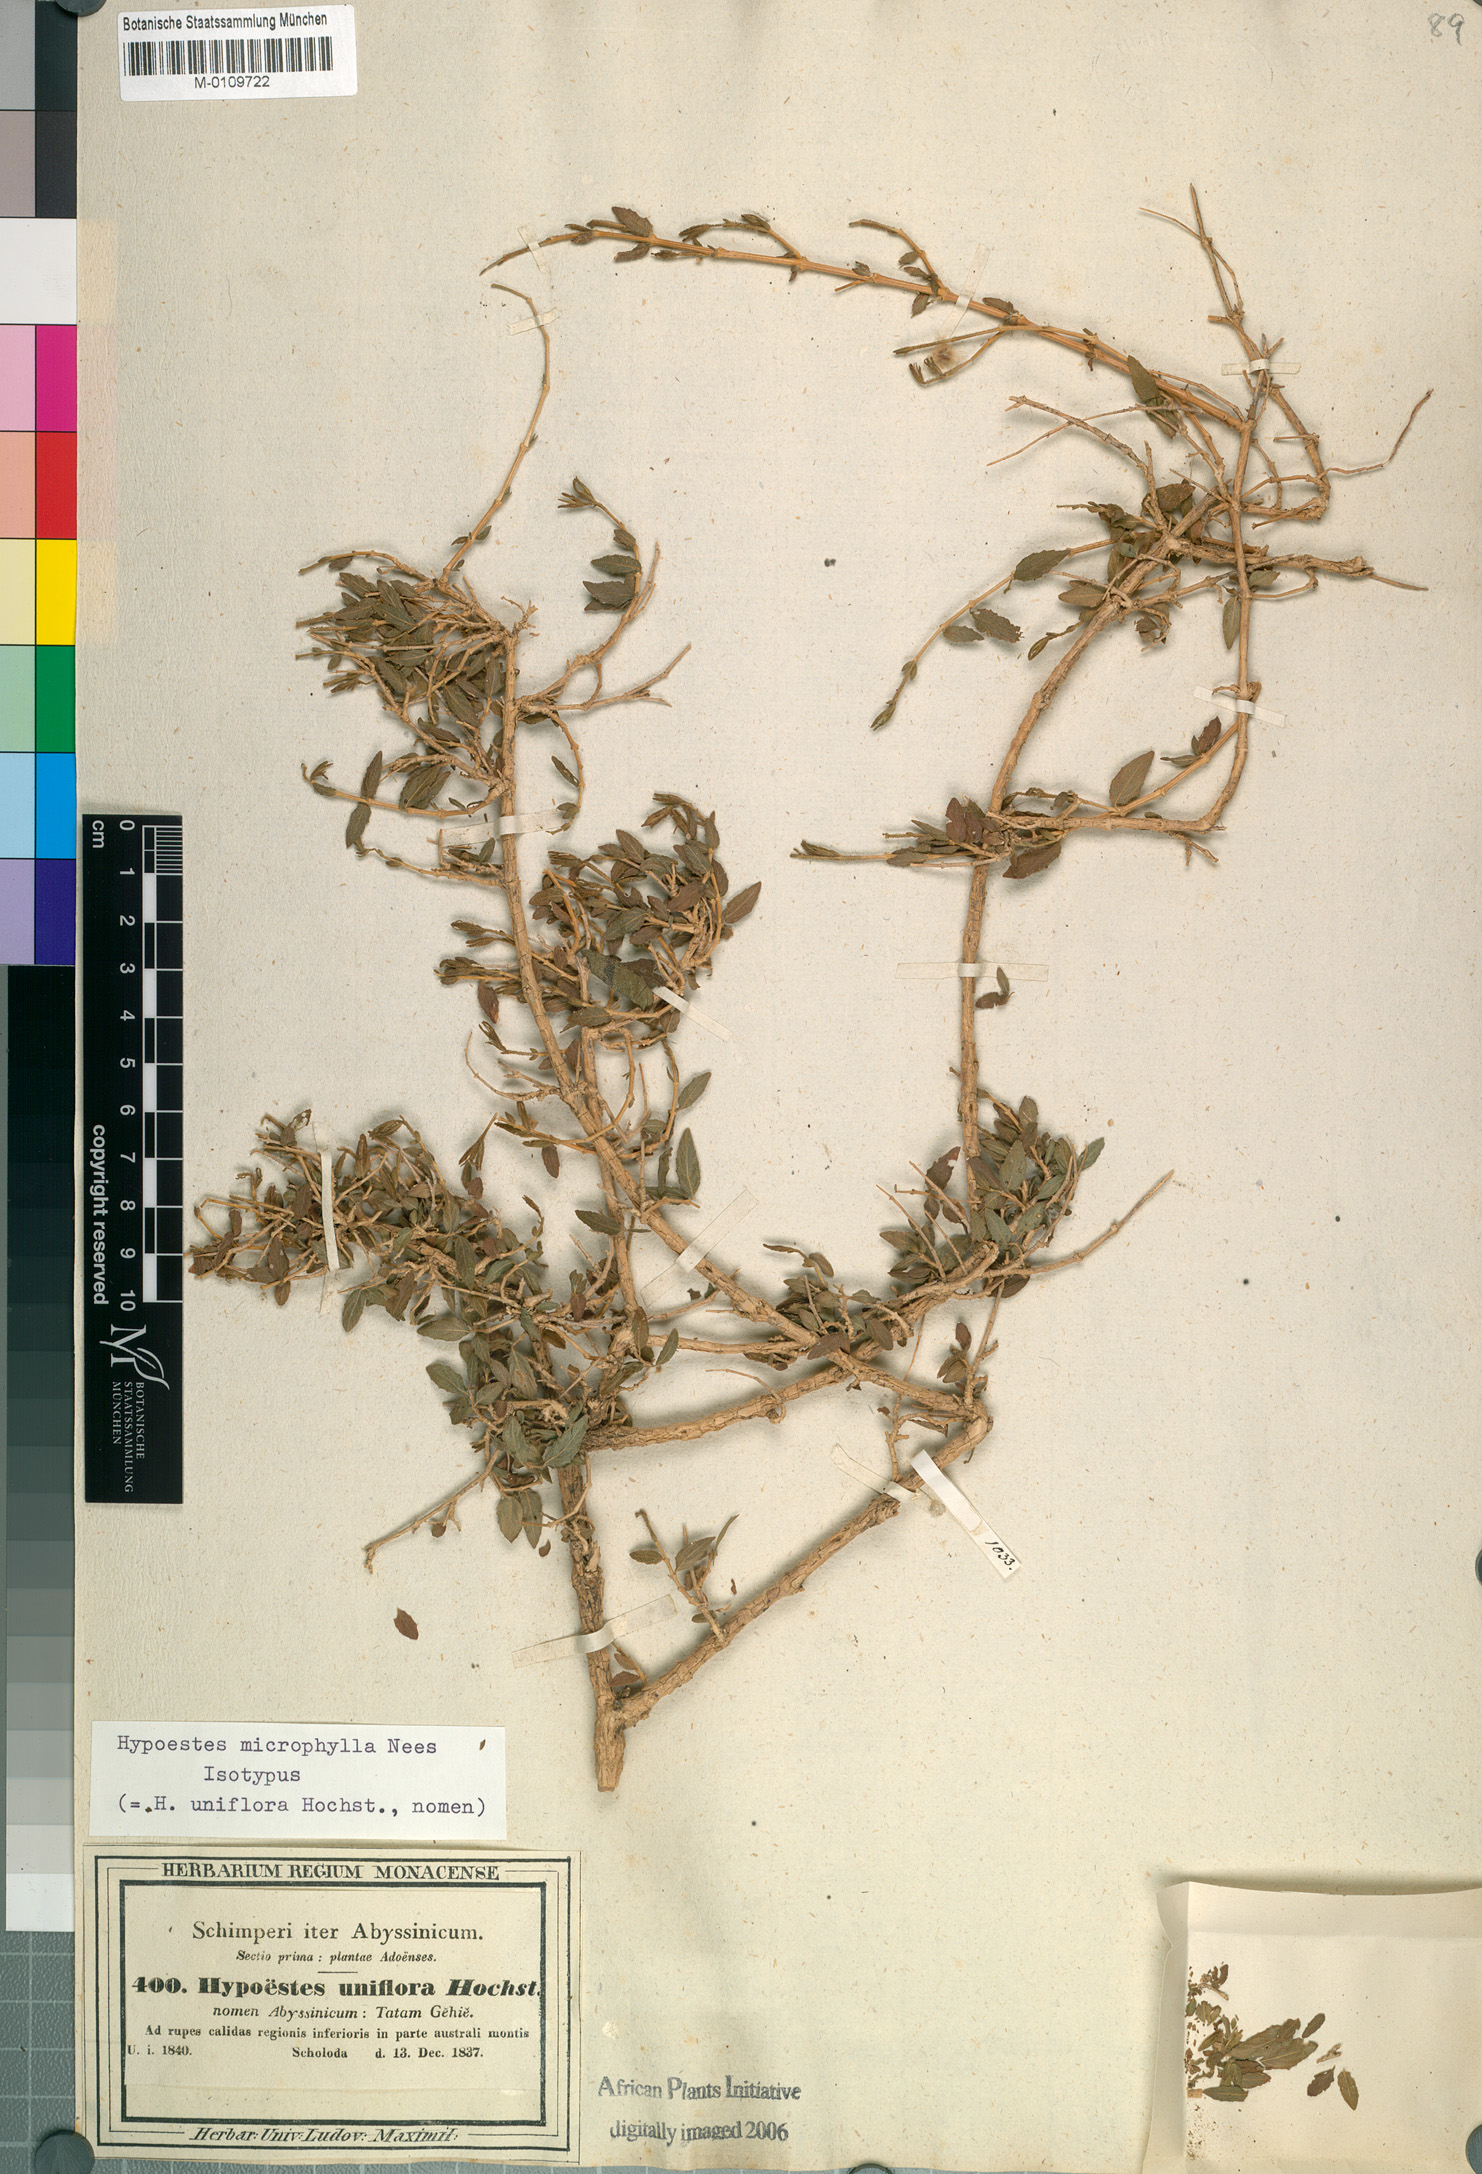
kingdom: Plantae
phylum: Tracheophyta
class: Magnoliopsida
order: Lamiales
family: Acanthaceae
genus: Hypoestes
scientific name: Hypoestes triflora
